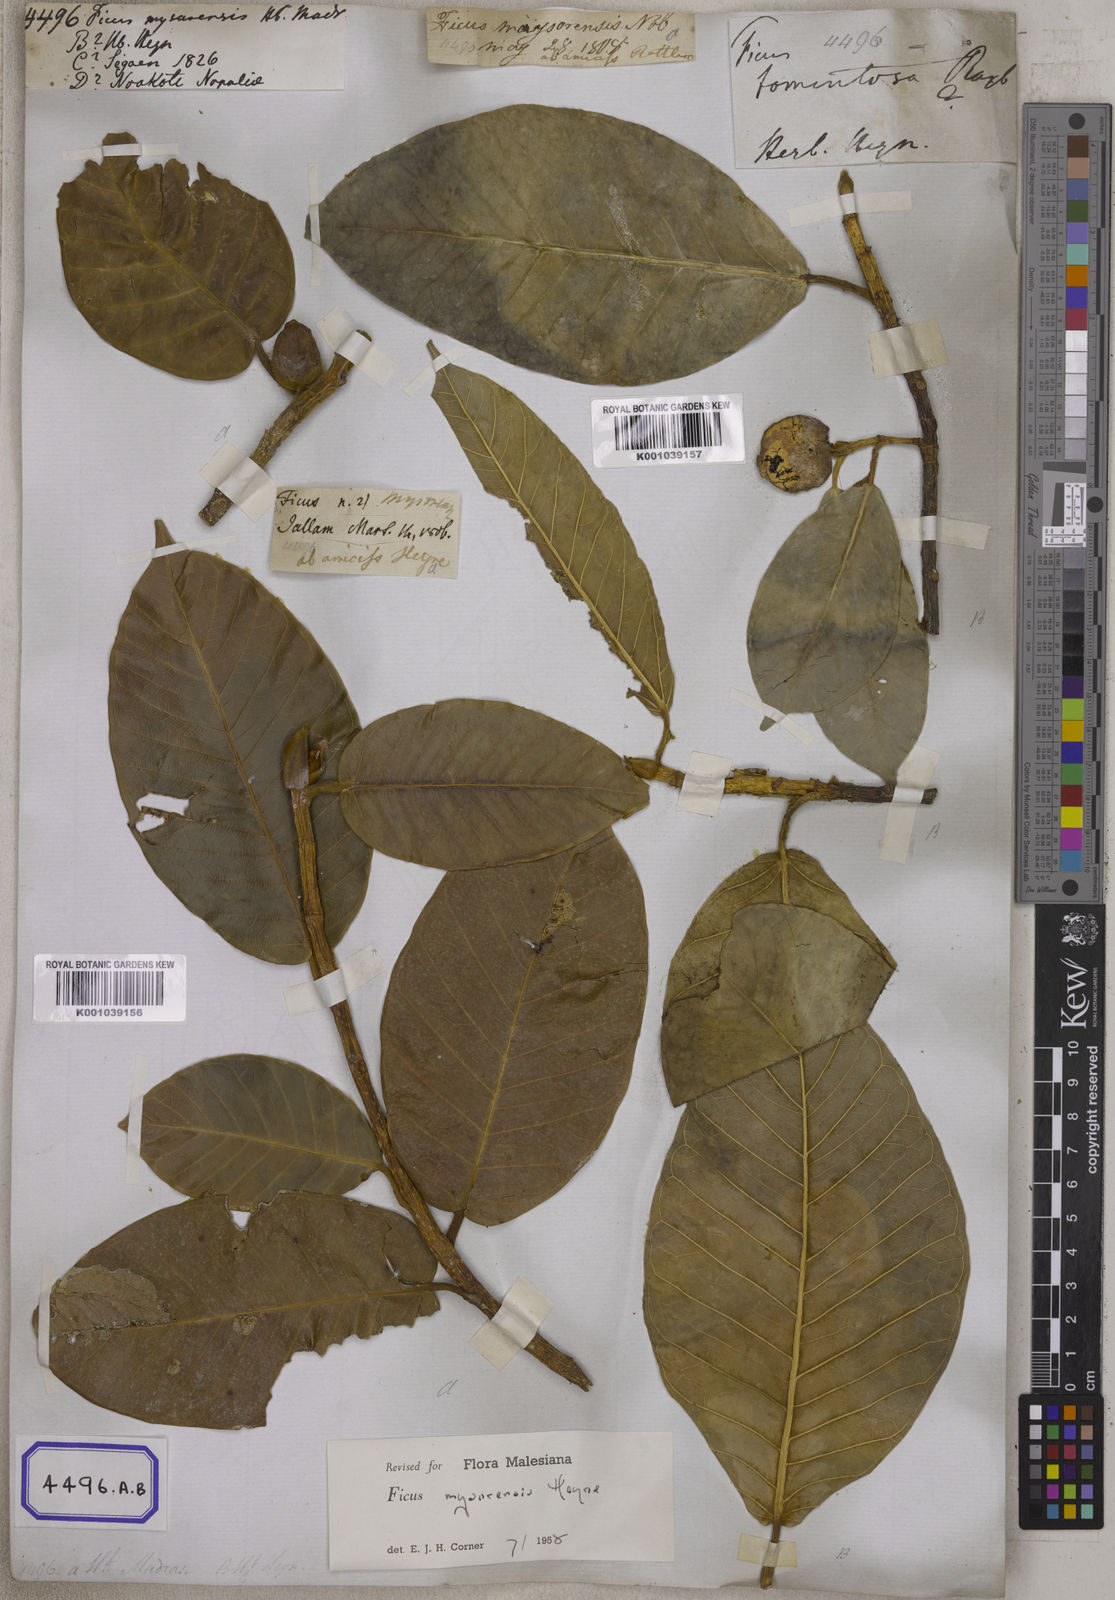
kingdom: Plantae
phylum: Tracheophyta
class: Magnoliopsida
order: Rosales
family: Moraceae
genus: Ficus
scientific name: Ficus drupacea
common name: Drupe fig
